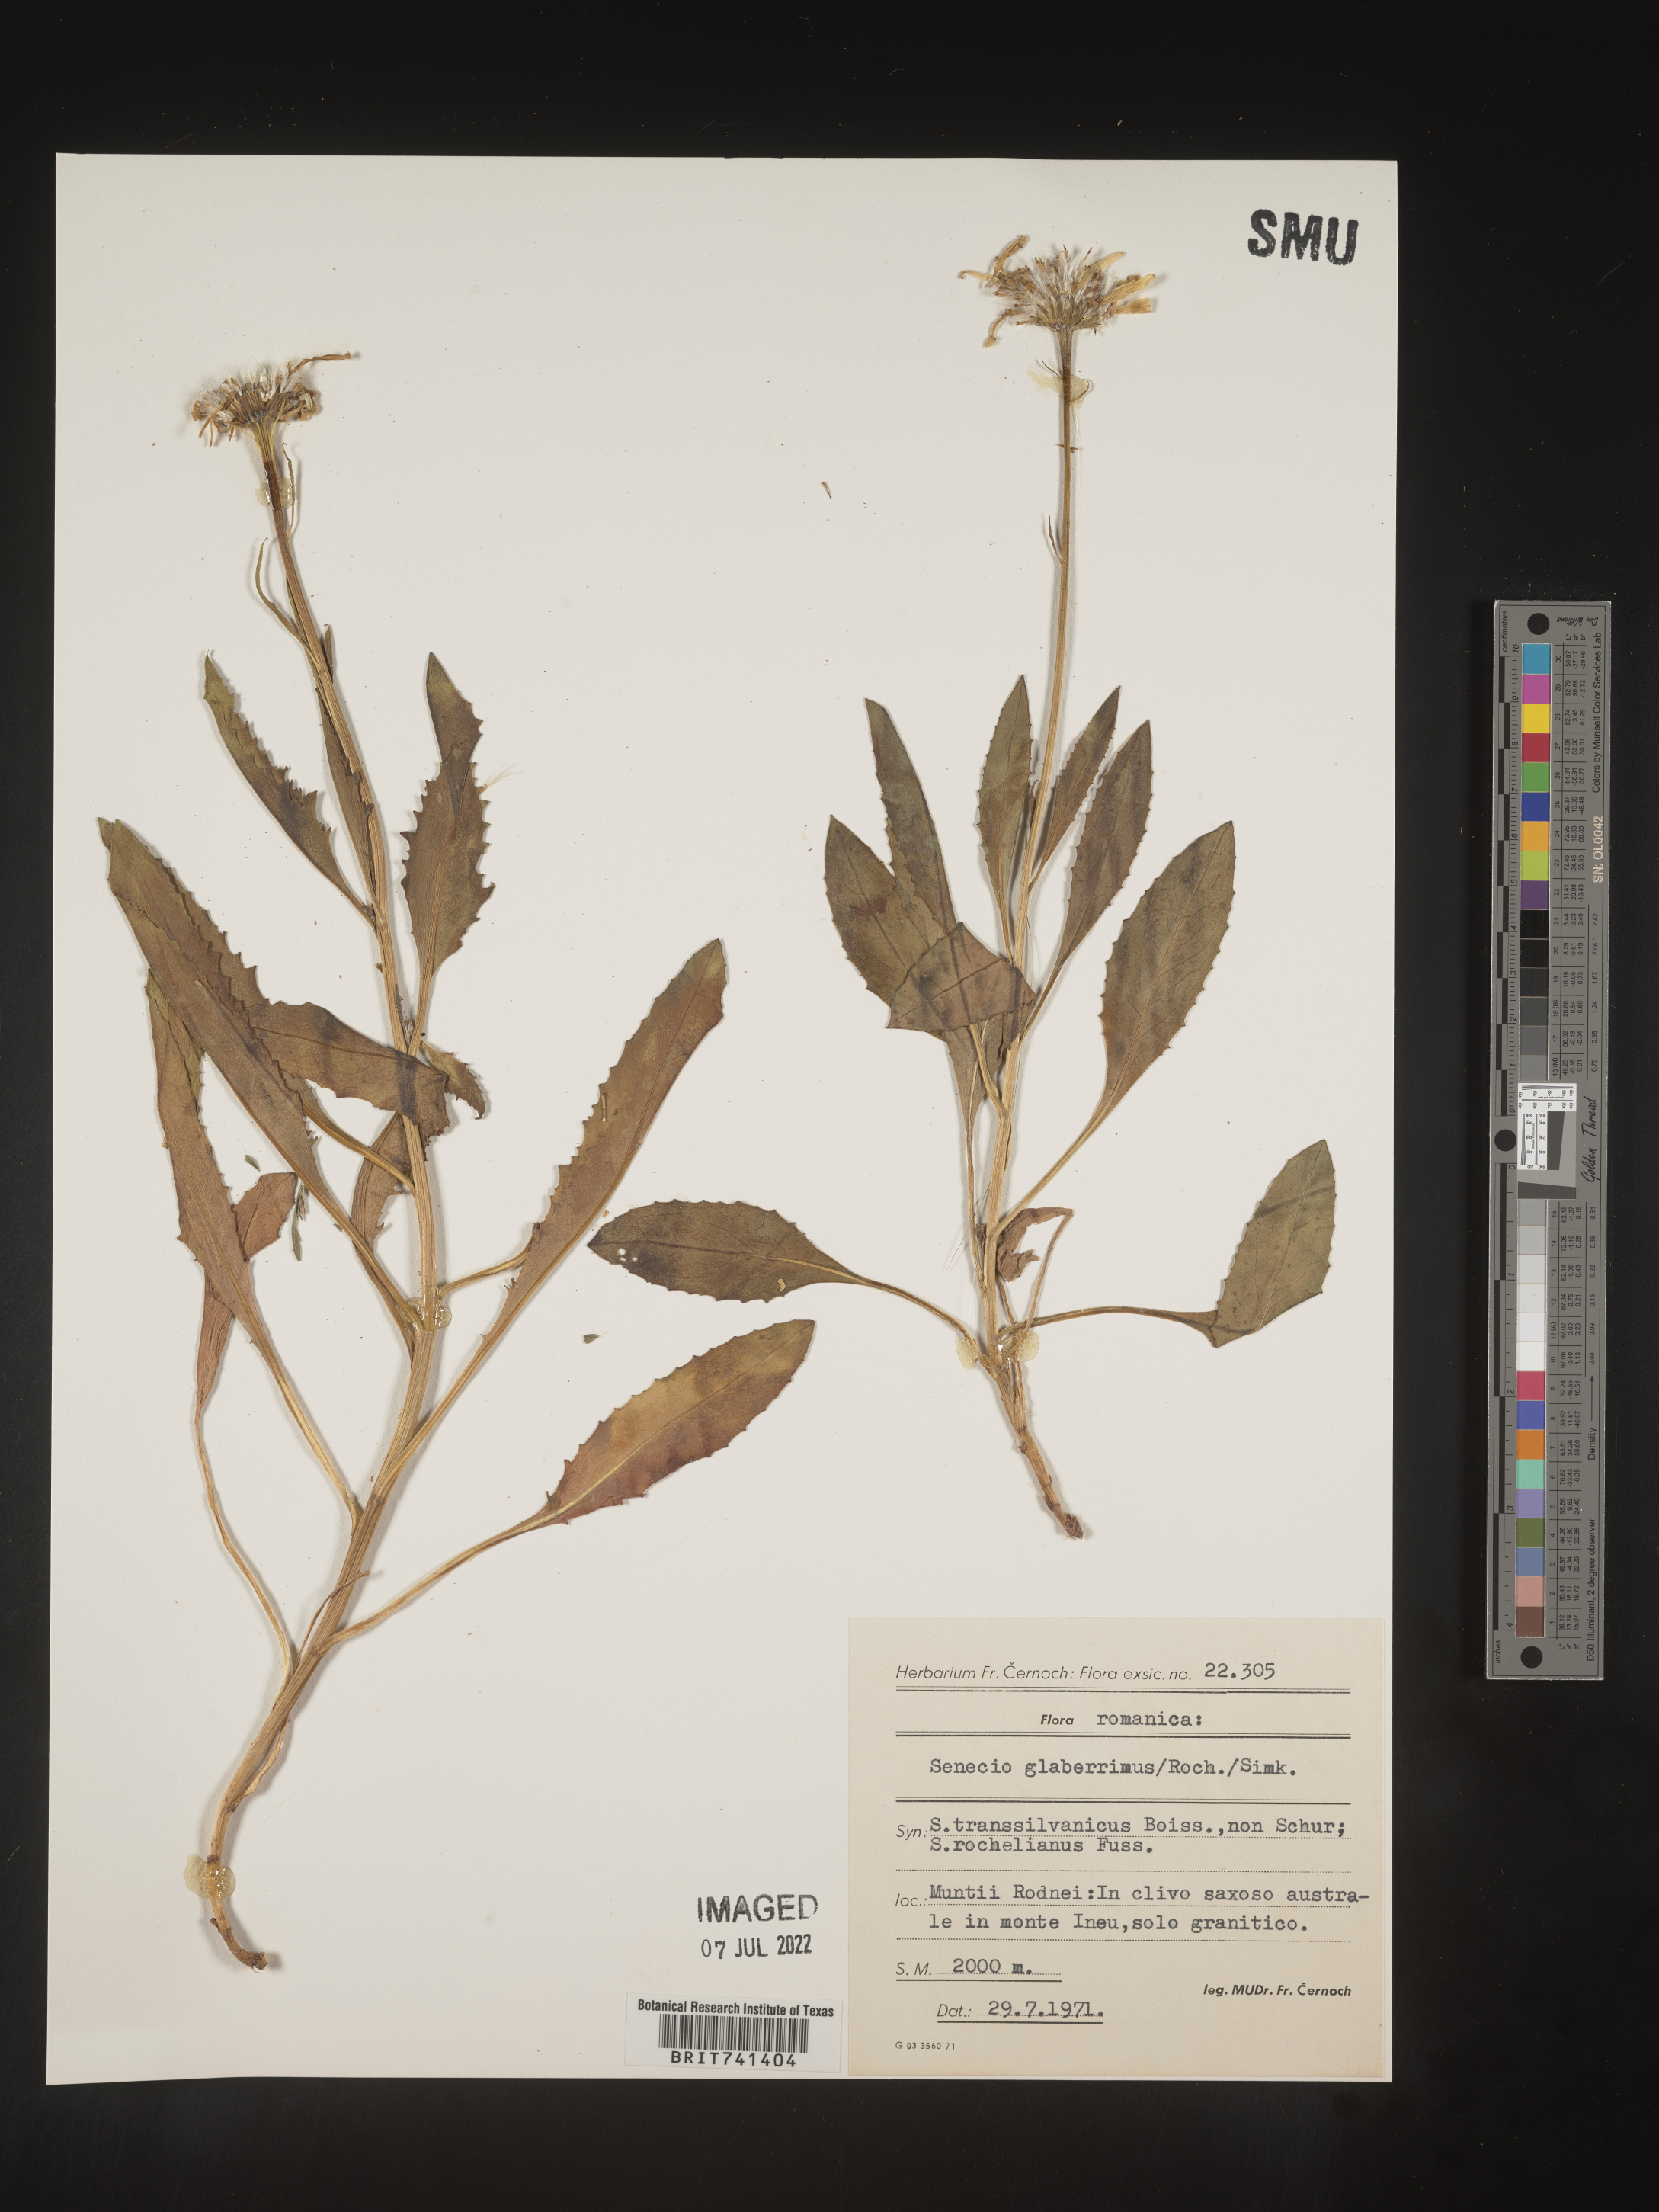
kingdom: Plantae
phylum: Tracheophyta
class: Magnoliopsida
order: Asterales
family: Asteraceae
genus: Senecio
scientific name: Senecio
